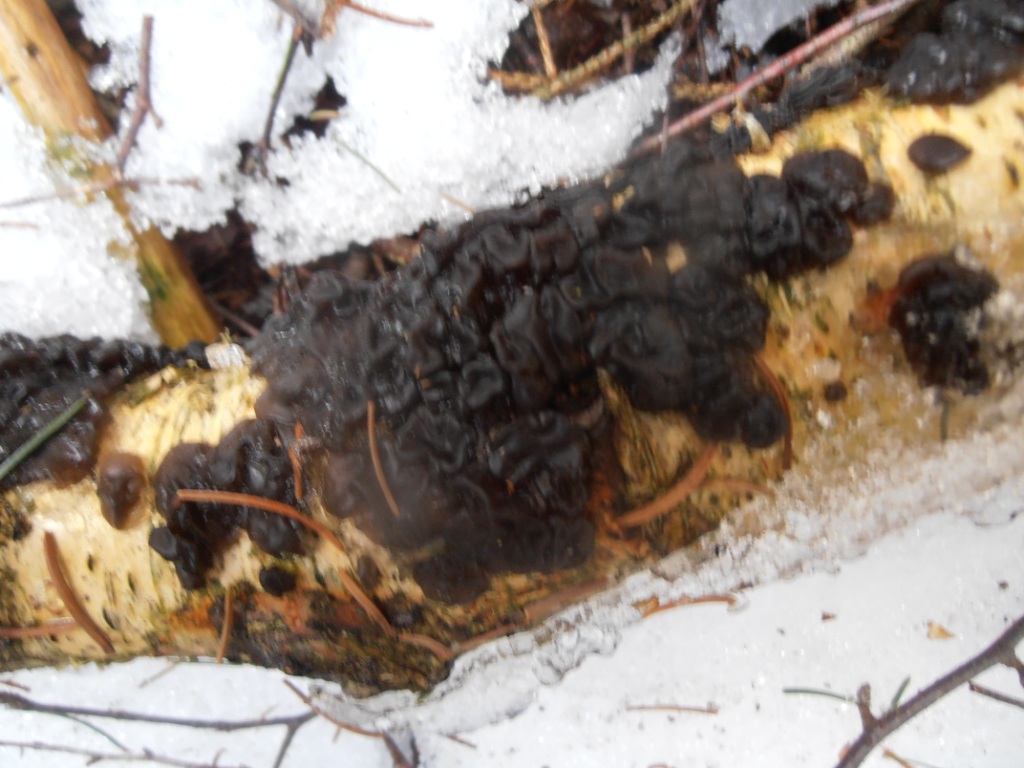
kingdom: Fungi
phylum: Basidiomycota
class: Agaricomycetes
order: Auriculariales
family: Auriculariaceae
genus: Exidia
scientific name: Exidia nigricans
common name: almindelig bævretop
